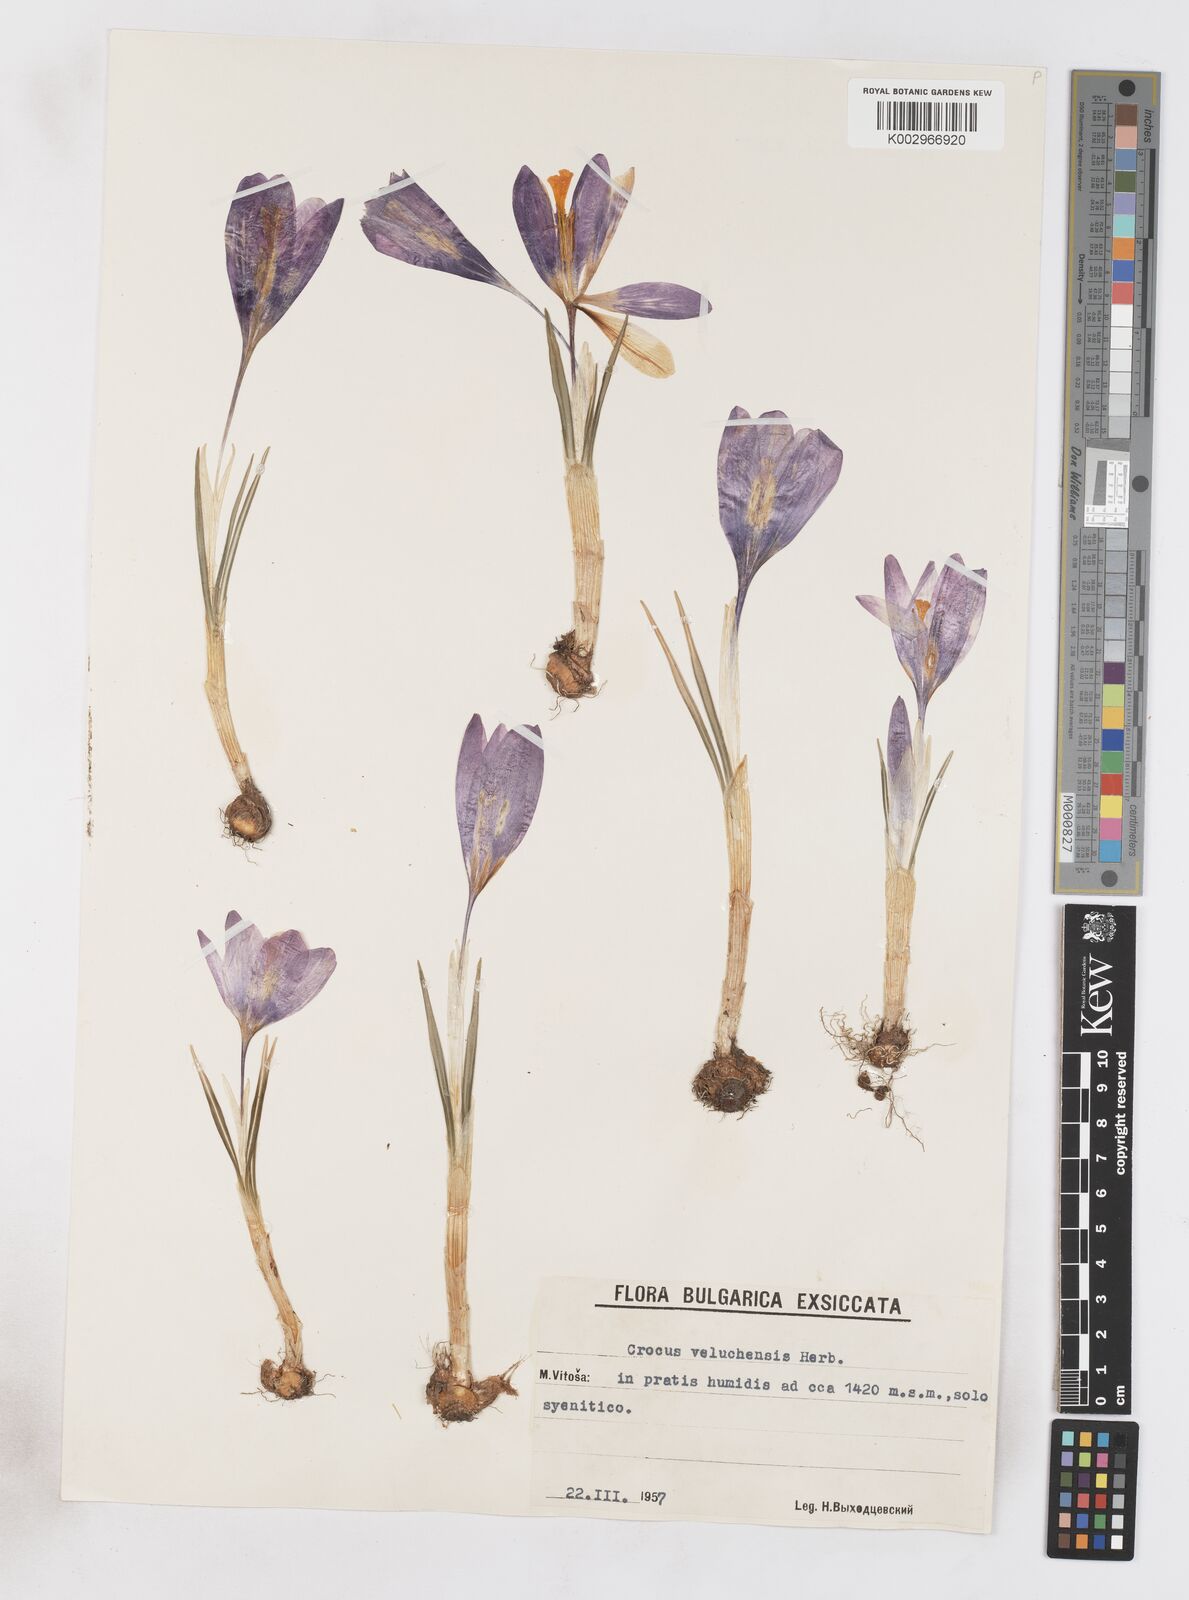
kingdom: Plantae
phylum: Tracheophyta
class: Liliopsida
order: Asparagales
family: Iridaceae
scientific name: Iridaceae
